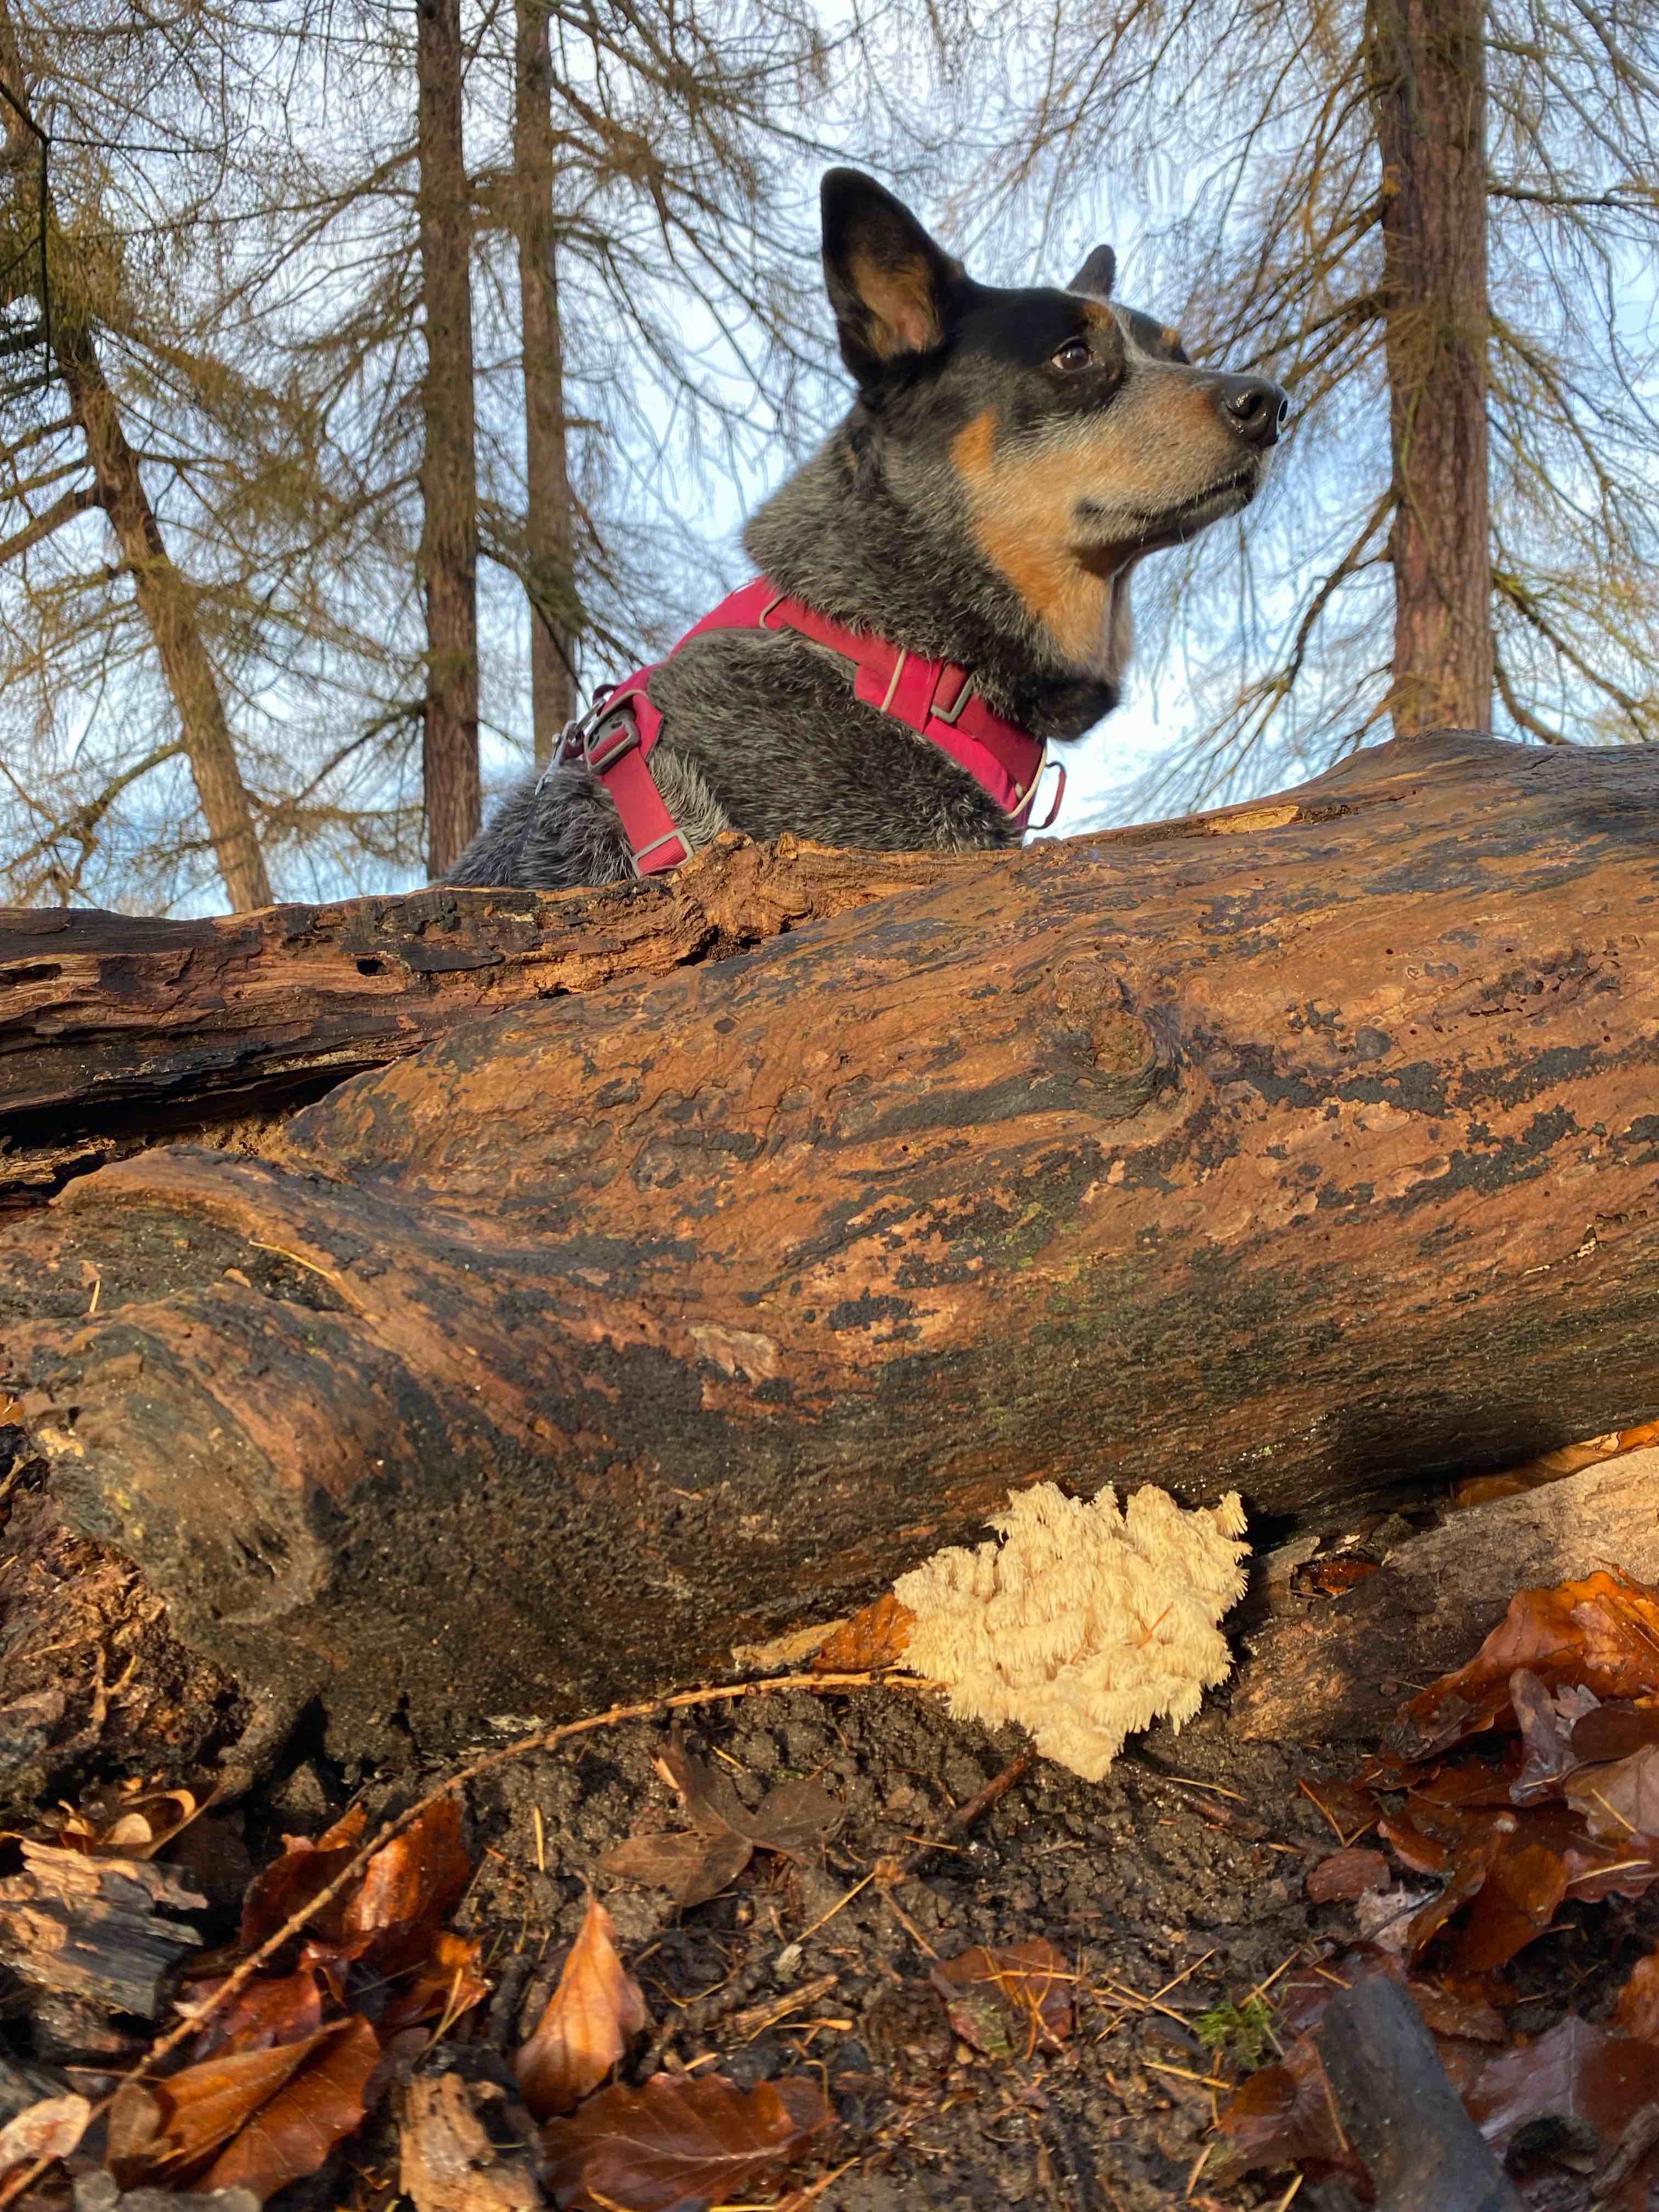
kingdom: Fungi
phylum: Basidiomycota
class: Agaricomycetes
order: Russulales
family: Hericiaceae
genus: Hericium
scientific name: Hericium coralloides
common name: koralpigsvamp
